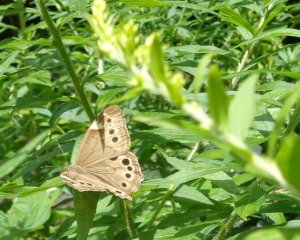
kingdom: Animalia
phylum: Arthropoda
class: Insecta
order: Lepidoptera
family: Nymphalidae
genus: Lethe
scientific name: Lethe anthedon
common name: Northern Pearly-Eye
